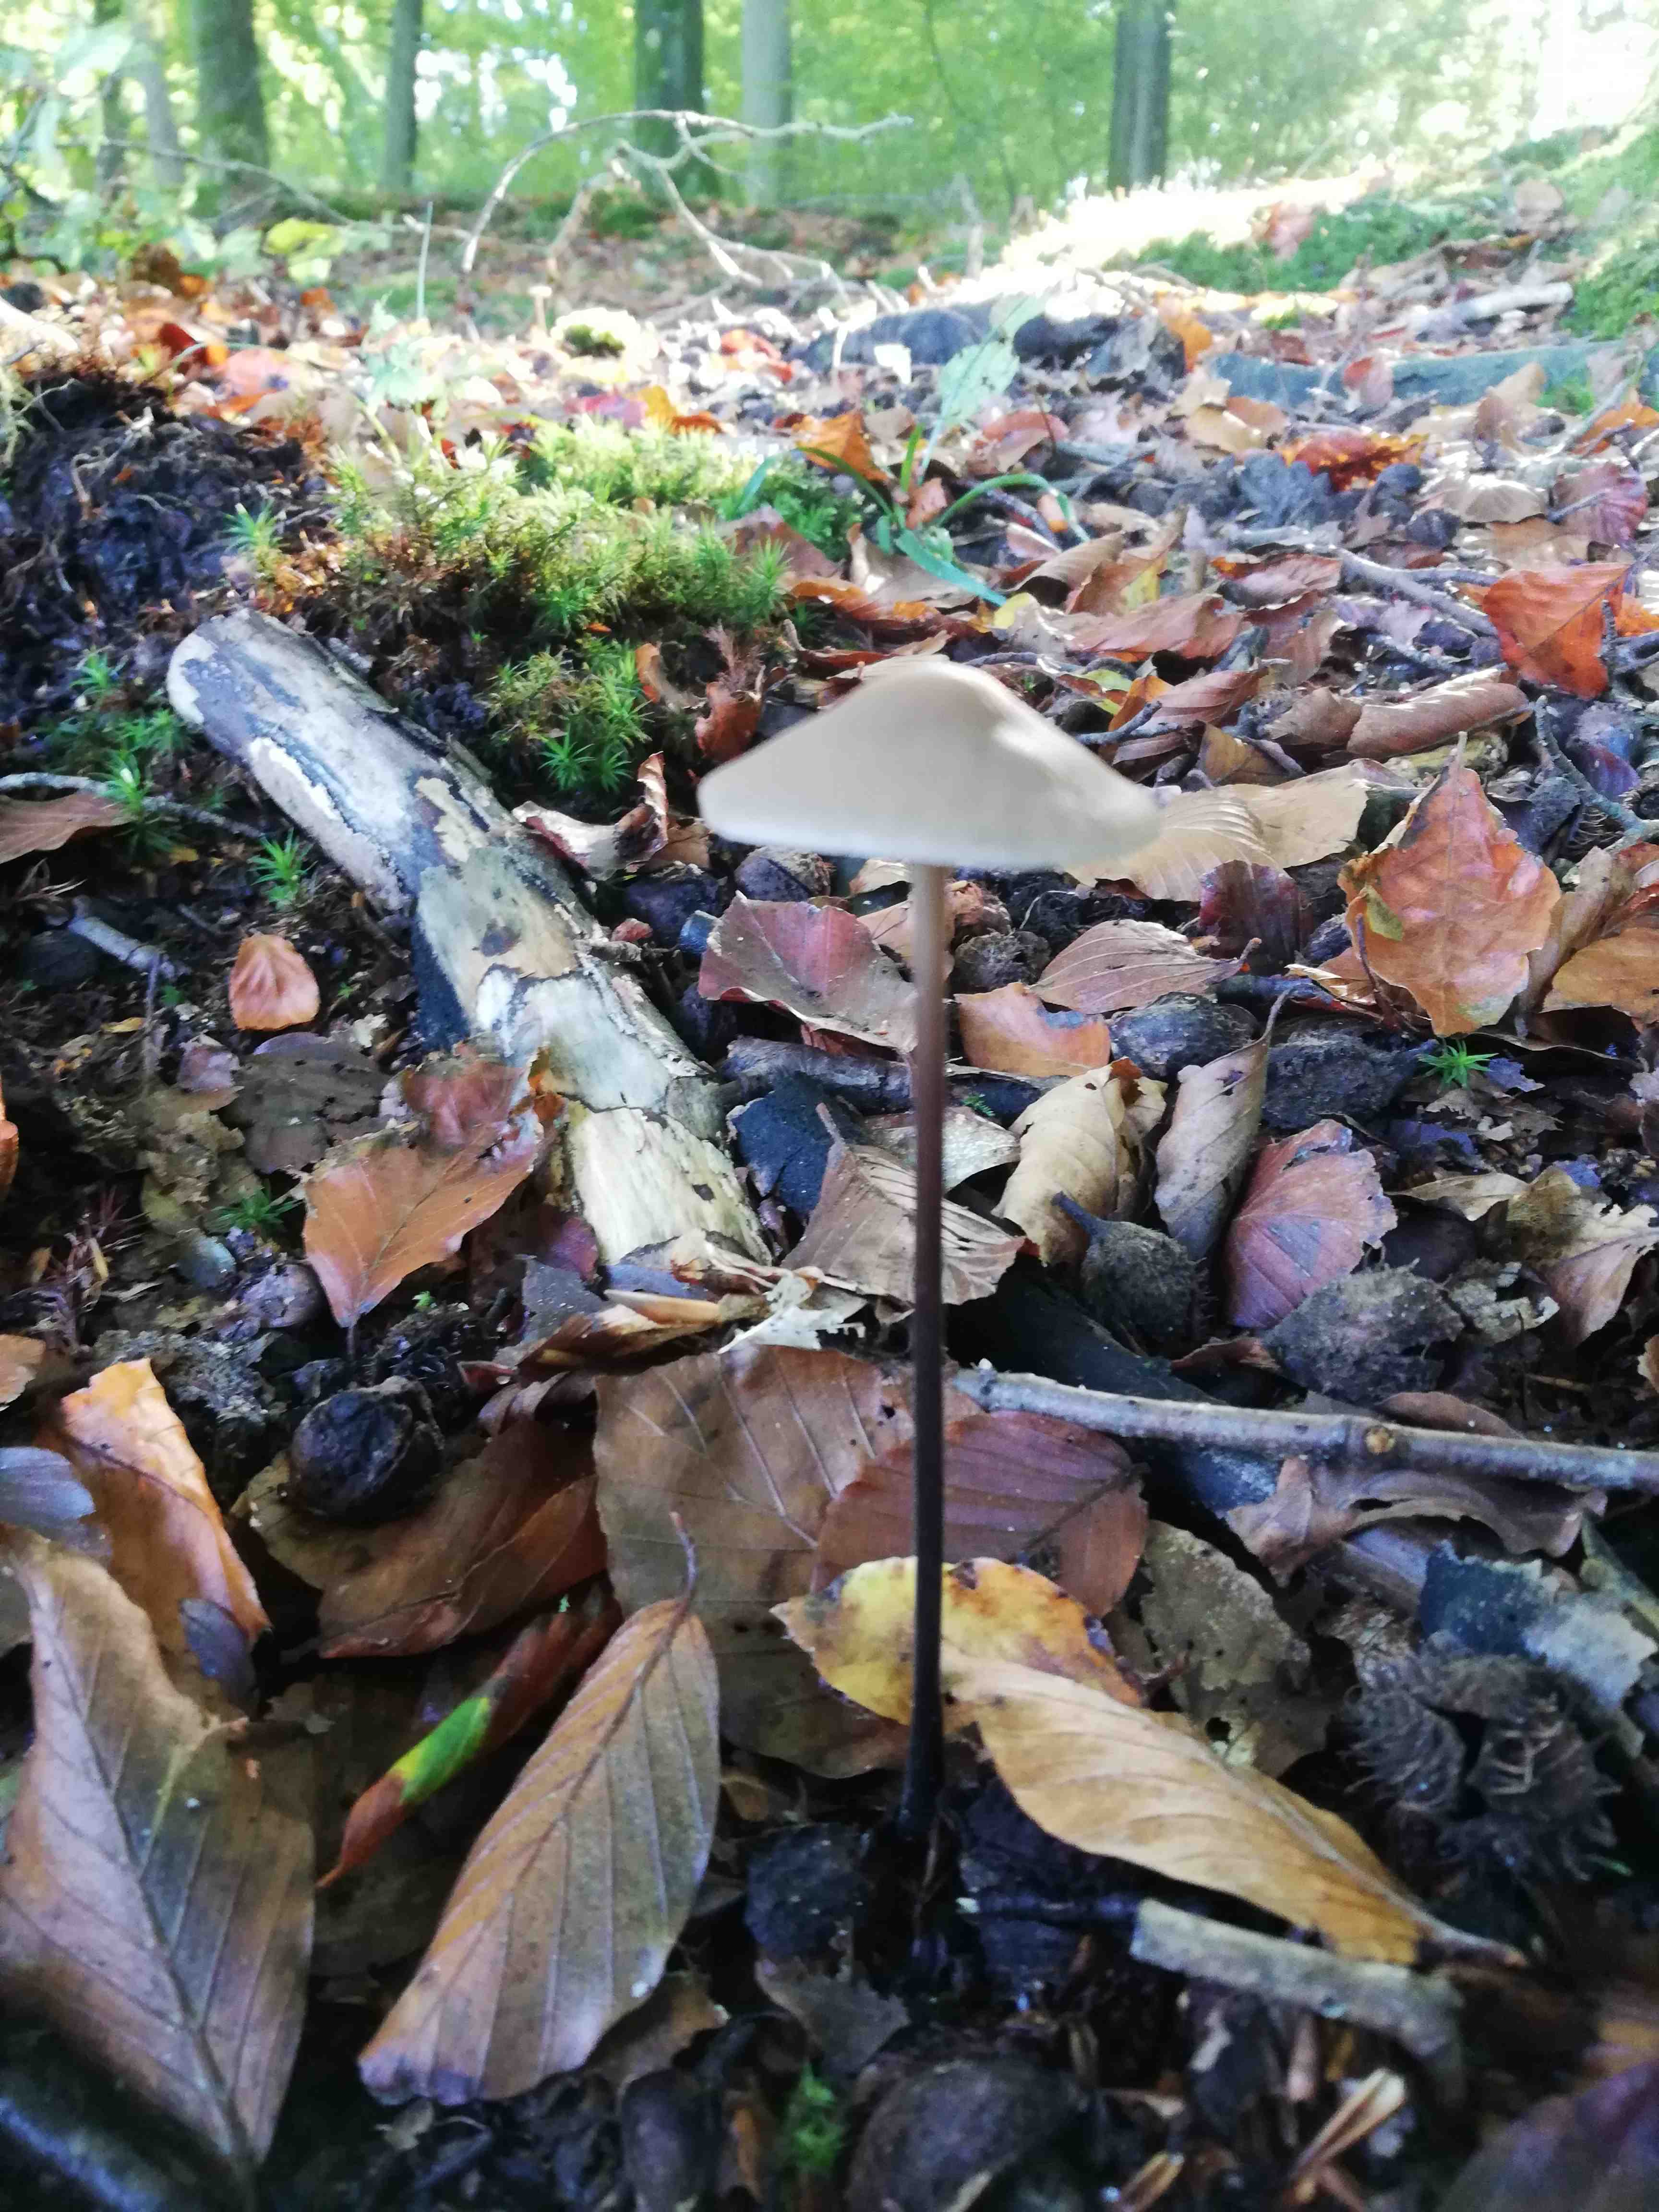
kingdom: Fungi
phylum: Basidiomycota
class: Agaricomycetes
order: Agaricales
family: Omphalotaceae
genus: Mycetinis
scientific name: Mycetinis alliaceus
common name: stor løghat
